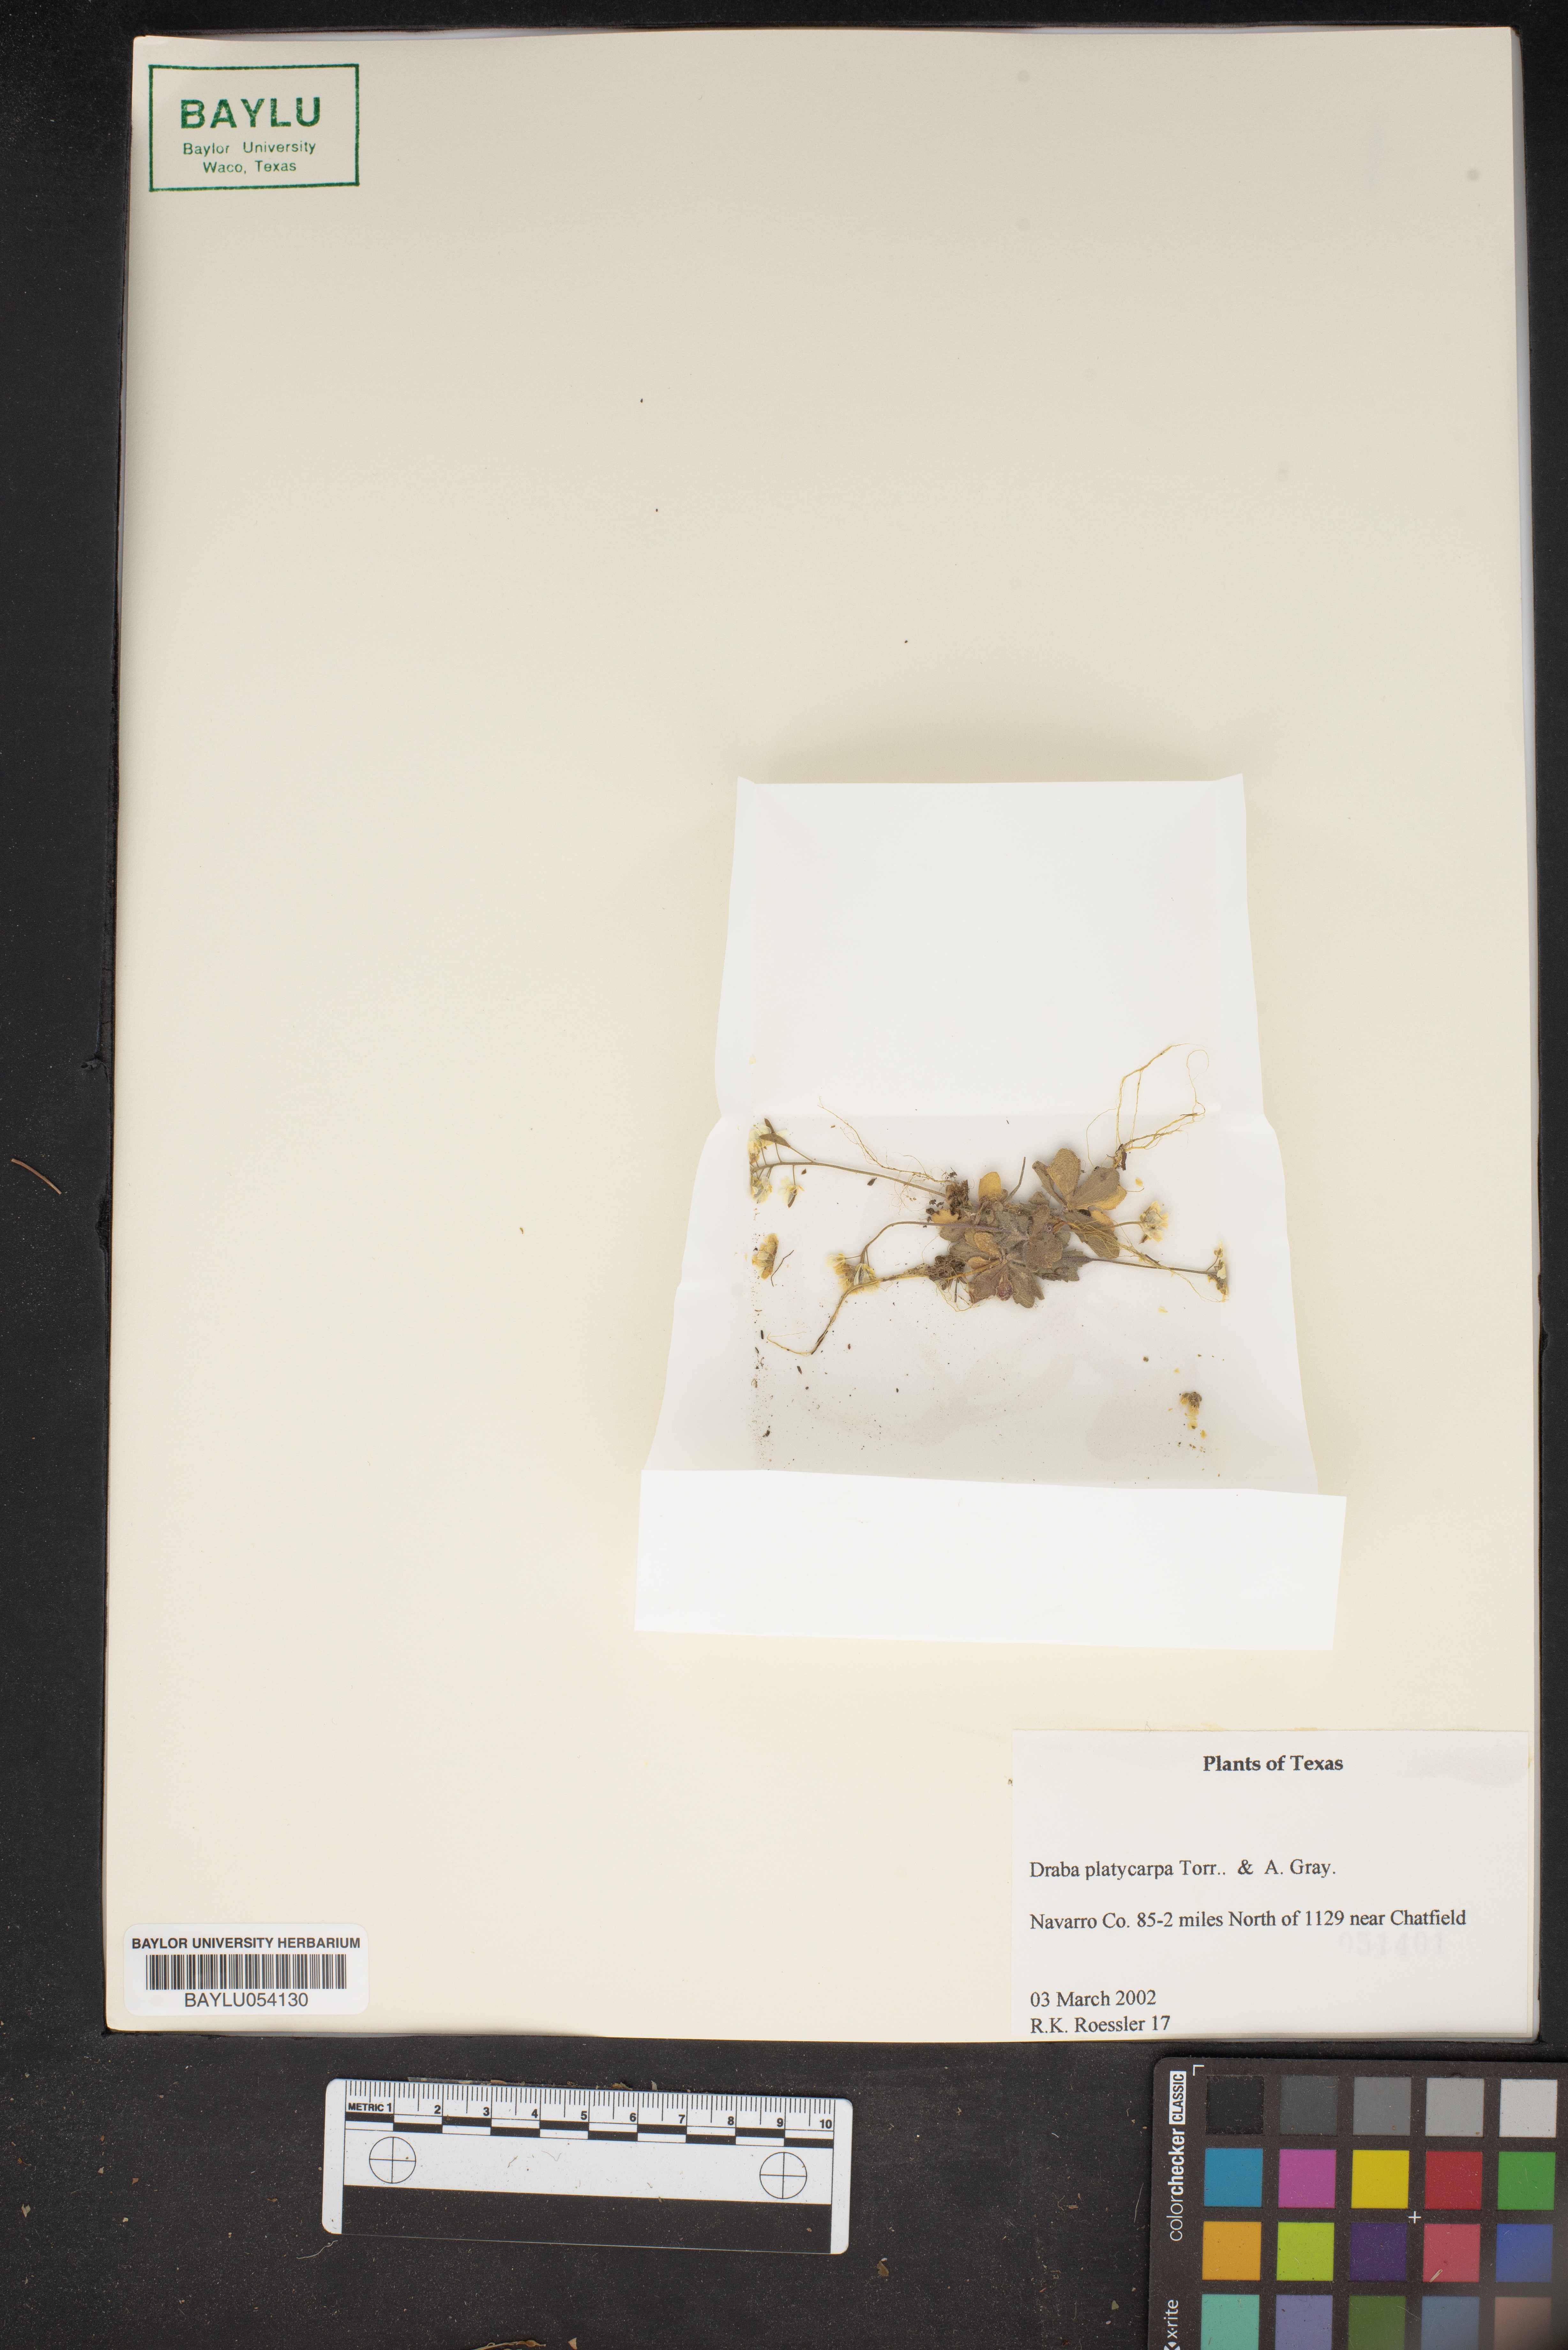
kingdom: Plantae
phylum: Tracheophyta
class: Magnoliopsida
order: Brassicales
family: Brassicaceae
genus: Tomostima
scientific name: Tomostima platycarpa
